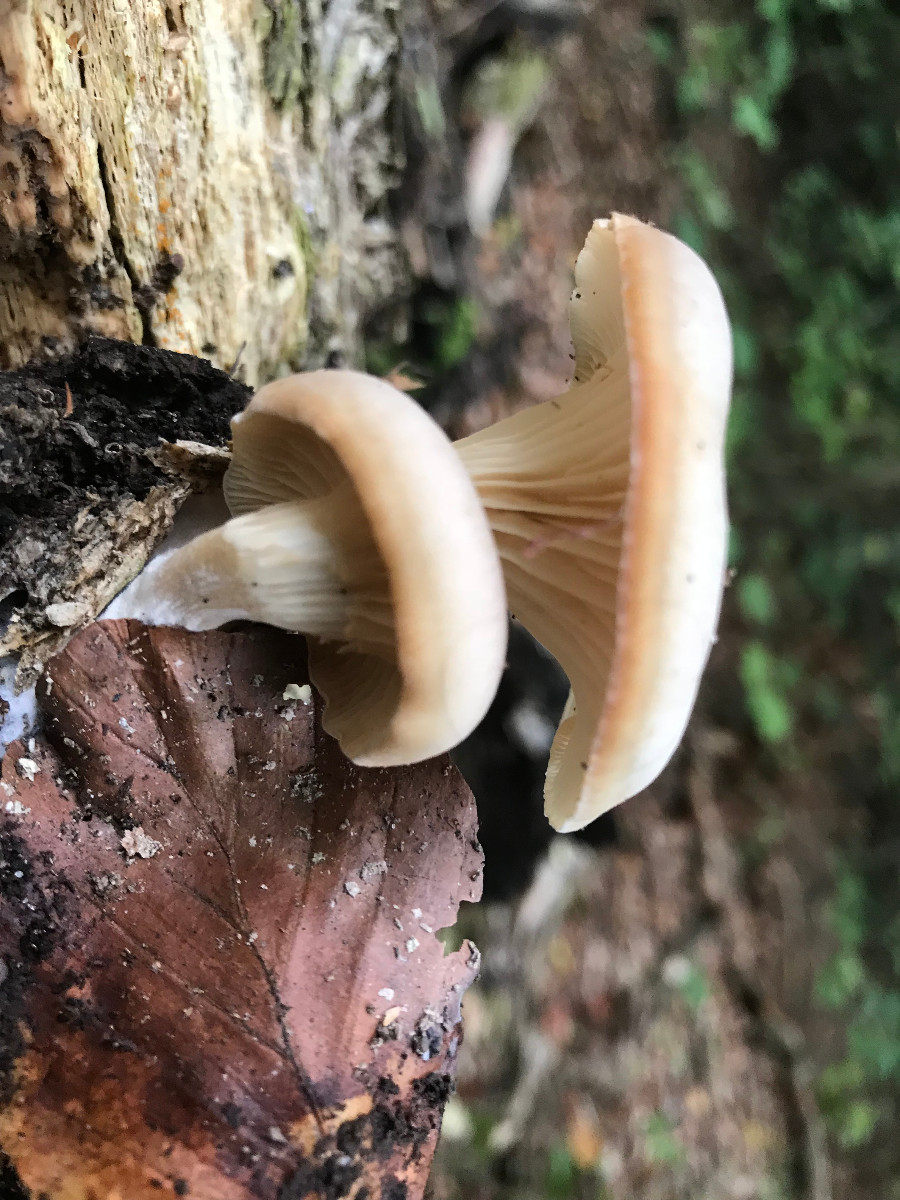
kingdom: Fungi
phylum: Basidiomycota
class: Agaricomycetes
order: Agaricales
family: Tricholomataceae
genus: Clitocybe
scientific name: Clitocybe phaeophthalma
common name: stinkende tragthat
